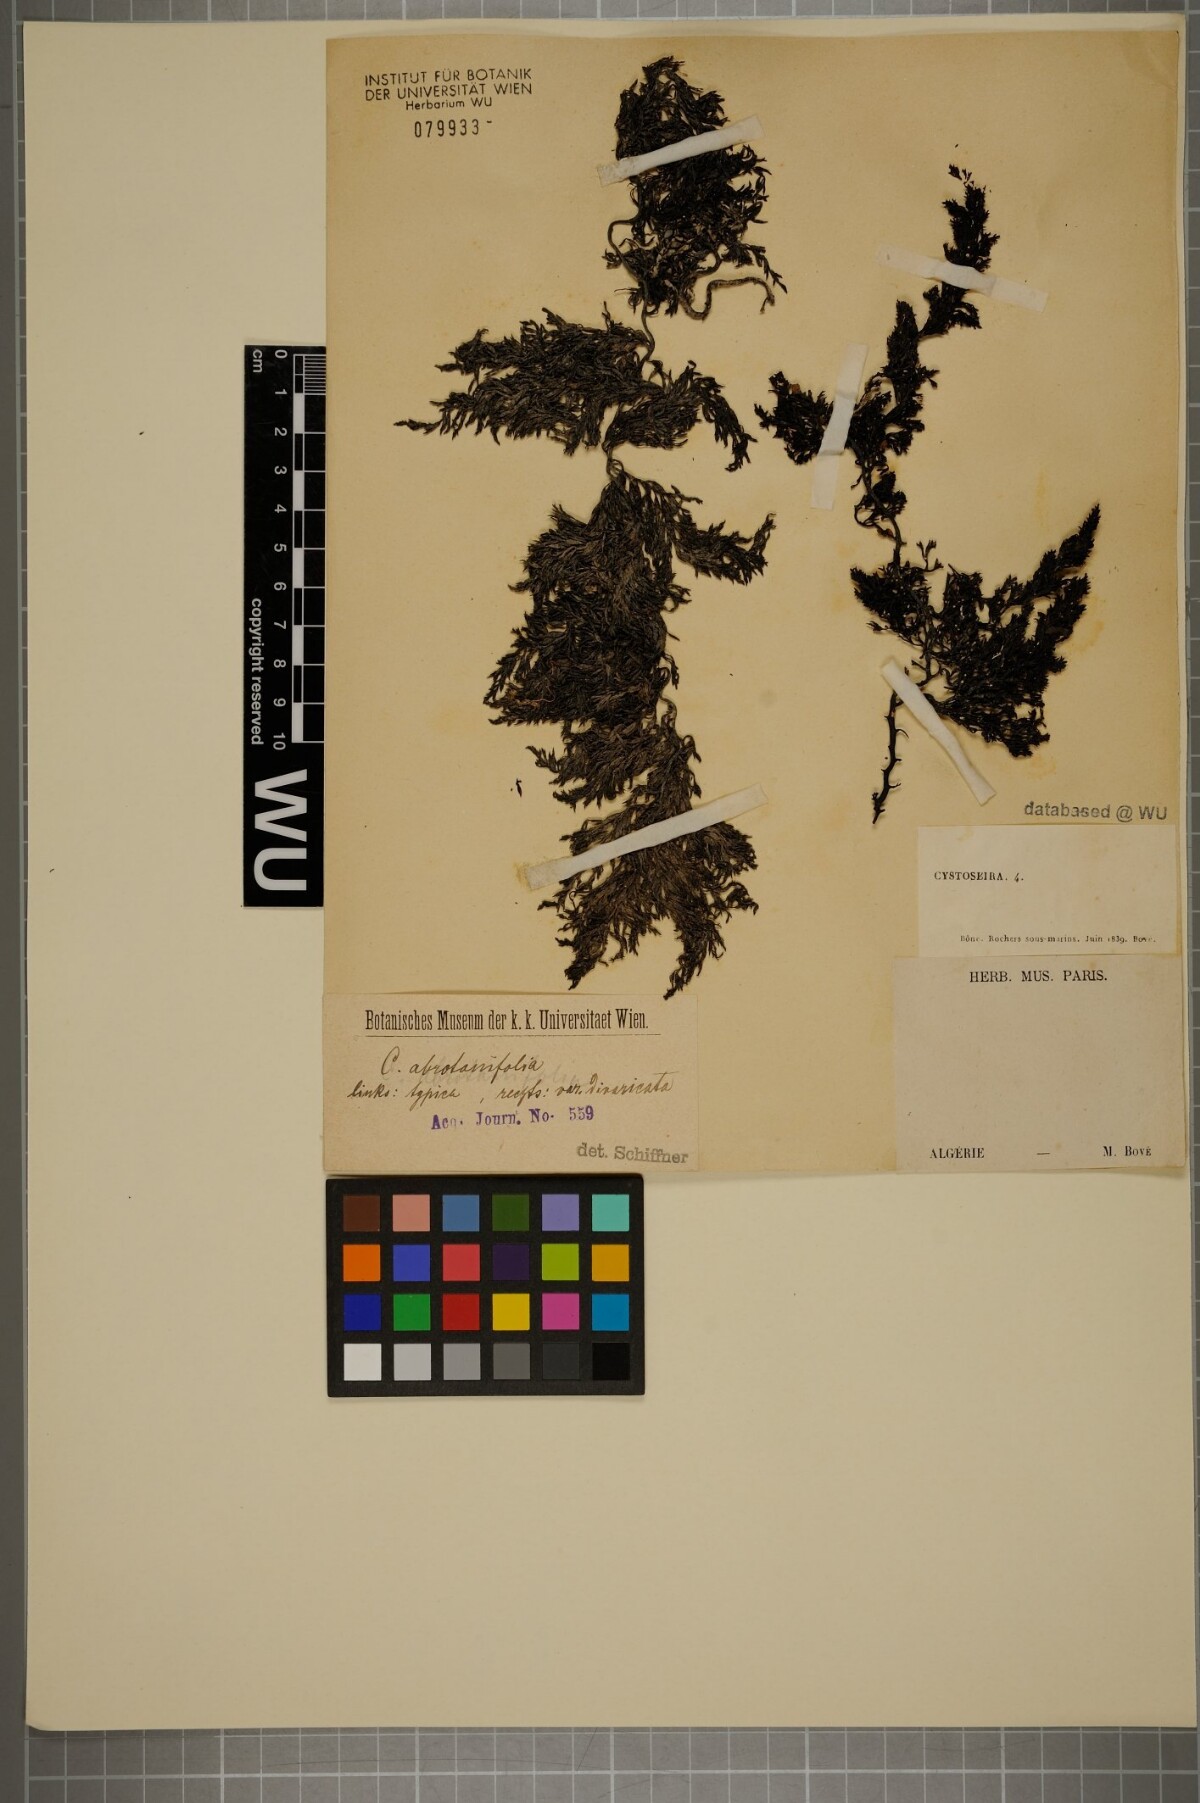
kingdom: Chromista
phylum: Ochrophyta
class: Phaeophyceae
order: Fucales
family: Sargassaceae
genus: Cystoseira
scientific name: Cystoseira foeniculacea
